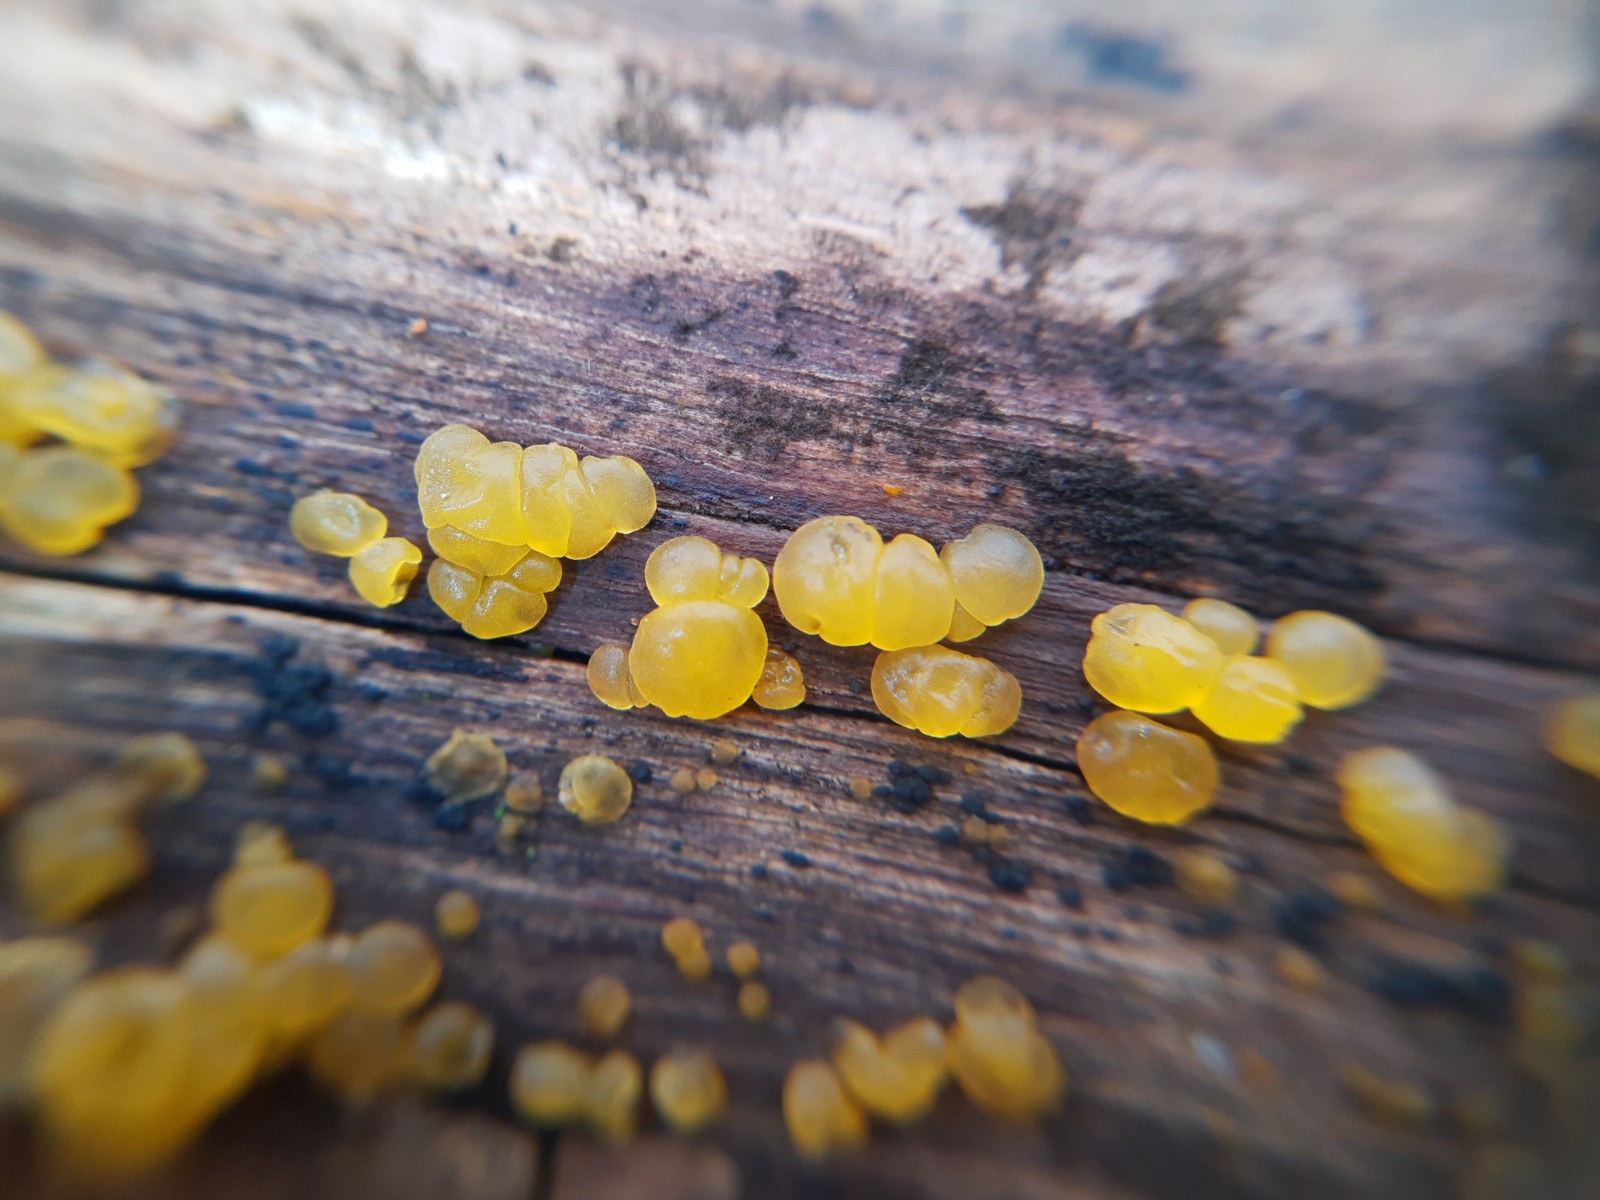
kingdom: Fungi
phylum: Basidiomycota
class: Dacrymycetes
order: Dacrymycetales
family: Dacrymycetaceae
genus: Dacrymyces
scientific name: Dacrymyces
